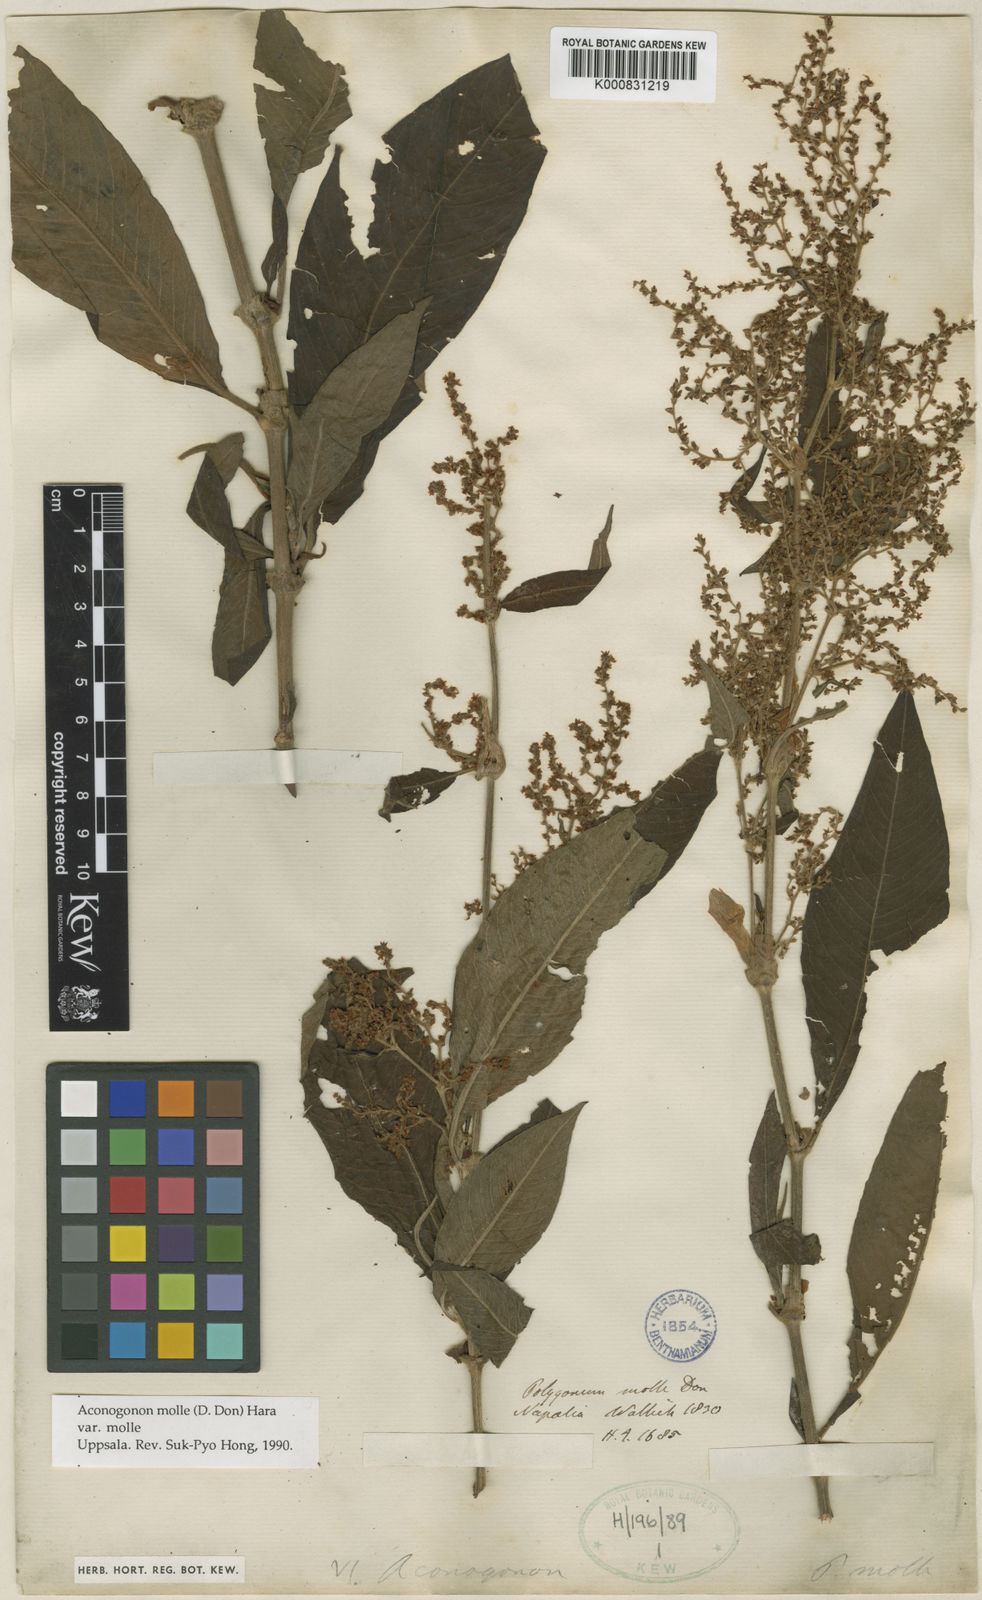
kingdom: Plantae
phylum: Tracheophyta
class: Magnoliopsida
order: Caryophyllales
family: Polygonaceae
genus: Koenigia
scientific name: Koenigia mollis
